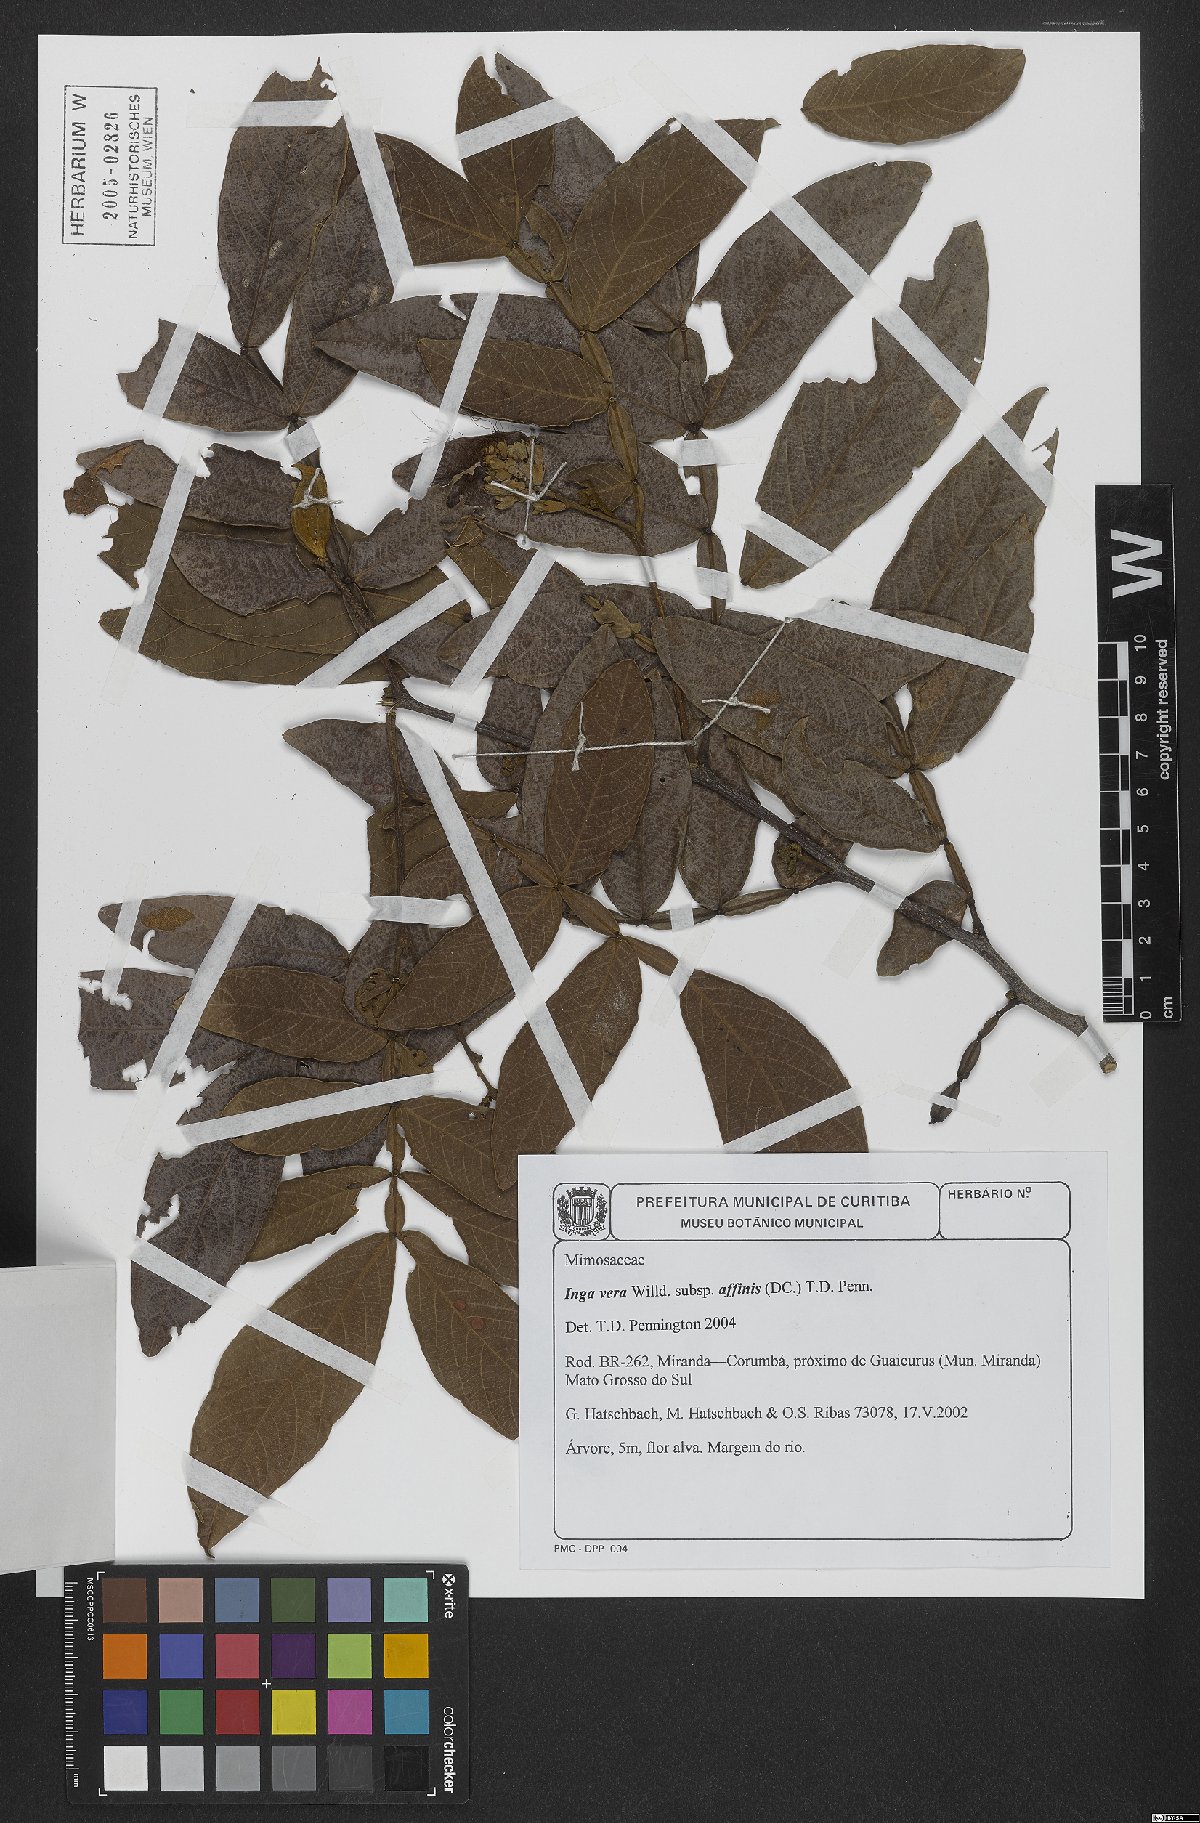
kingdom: Plantae
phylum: Tracheophyta
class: Magnoliopsida
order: Fabales
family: Fabaceae
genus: Inga
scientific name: Inga vera
